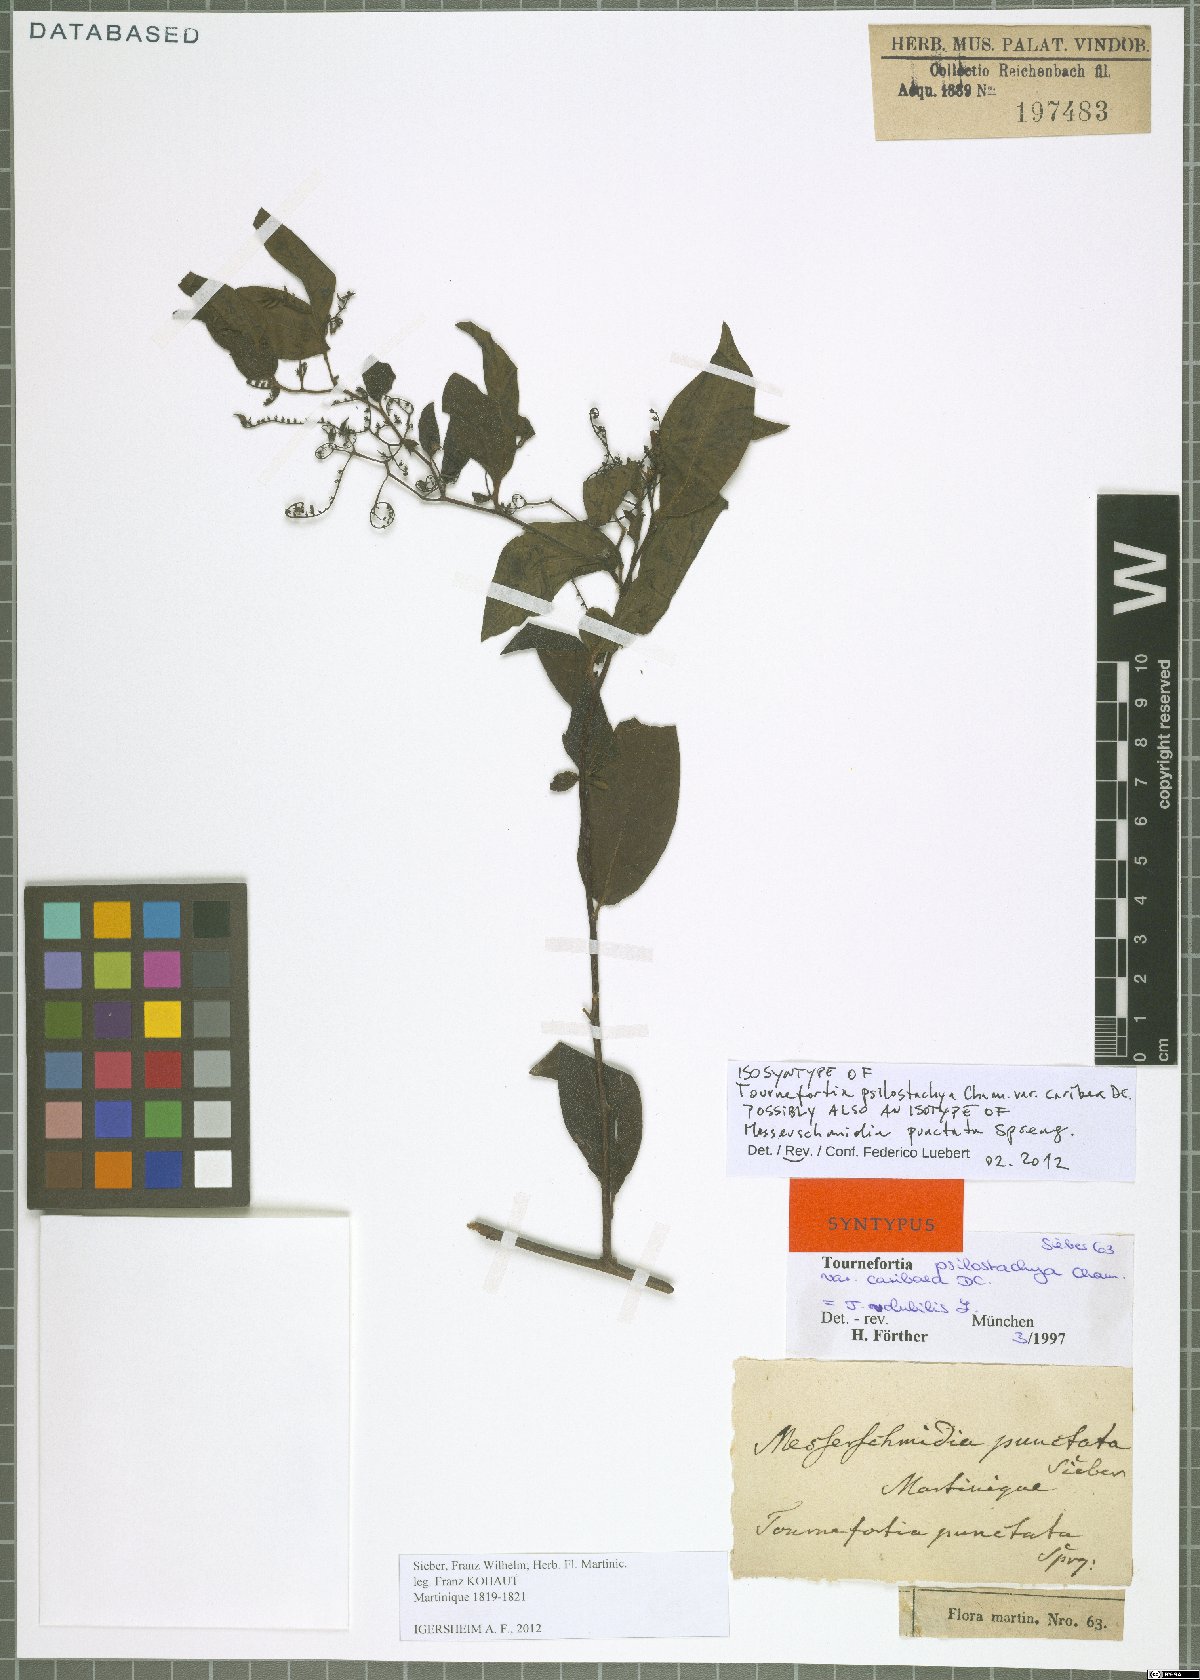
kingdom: Plantae
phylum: Tracheophyta
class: Magnoliopsida
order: Boraginales
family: Heliotropiaceae
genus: Myriopus
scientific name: Myriopus volubilis
